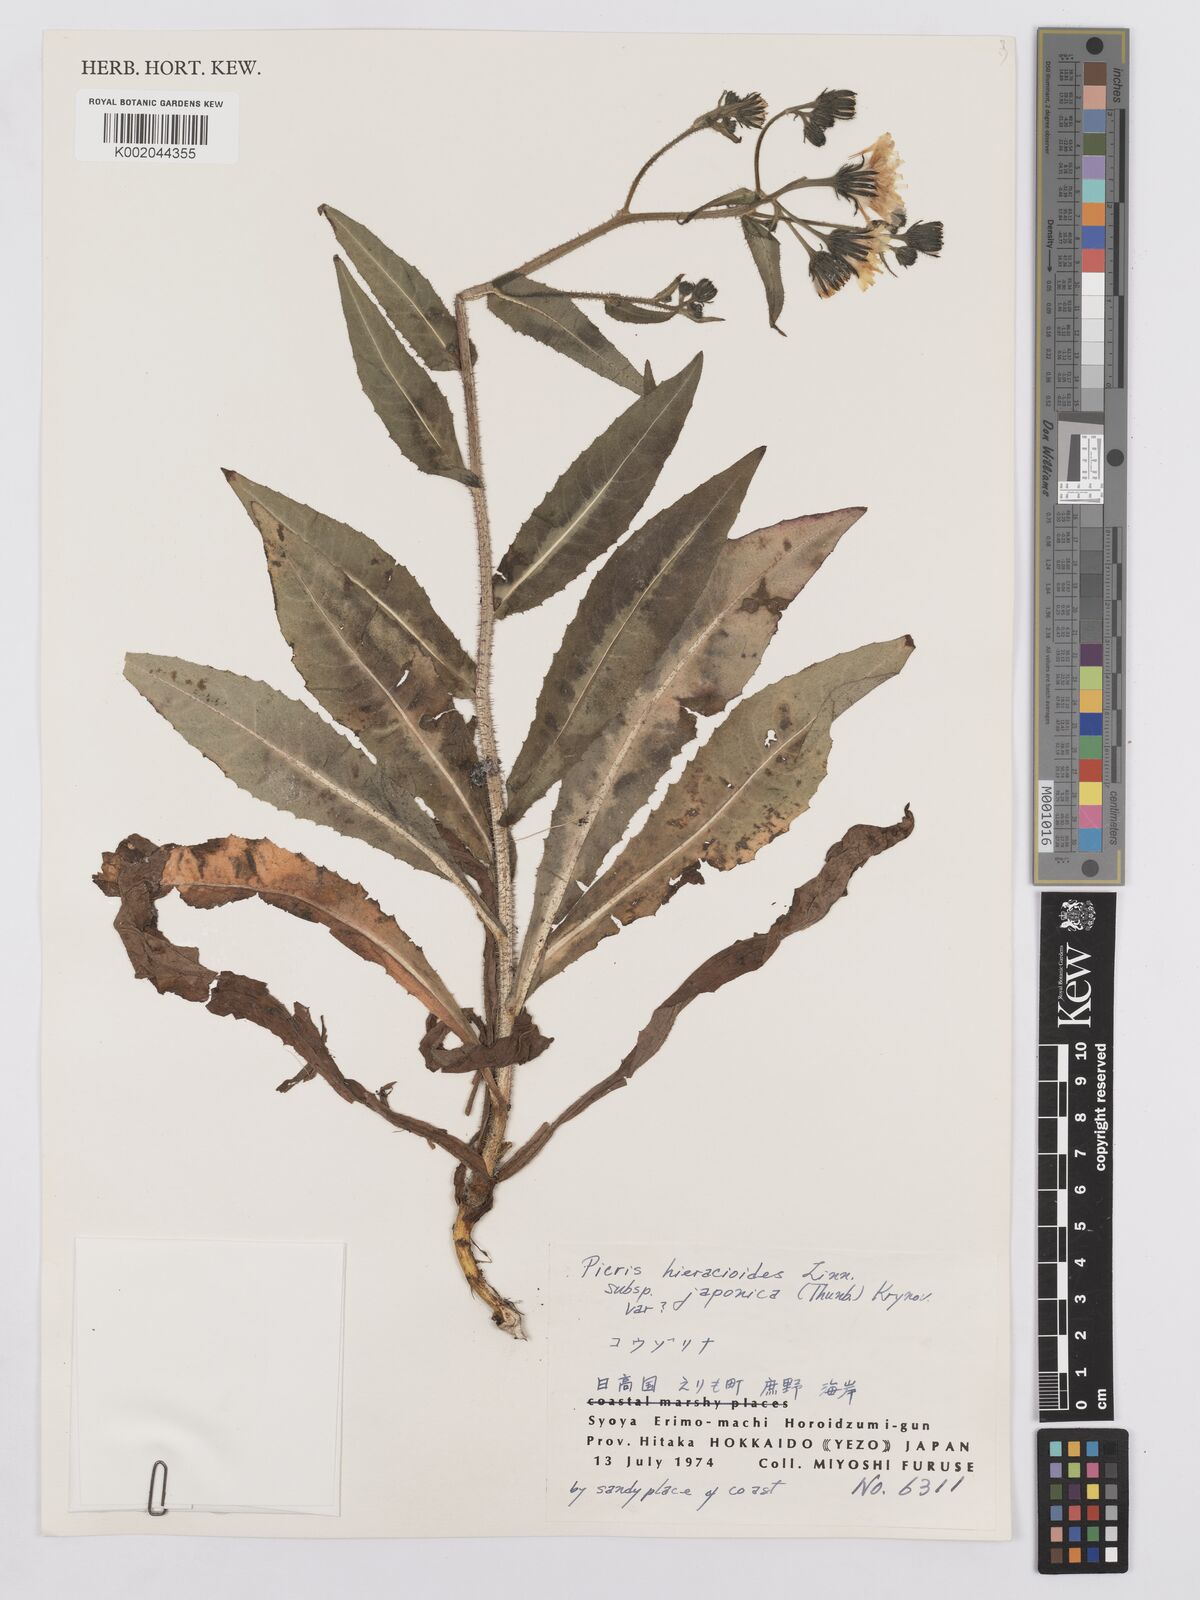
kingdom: Plantae
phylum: Tracheophyta
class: Magnoliopsida
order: Asterales
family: Asteraceae
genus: Picris
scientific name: Picris hieracioides
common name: Hawkweed oxtongue
